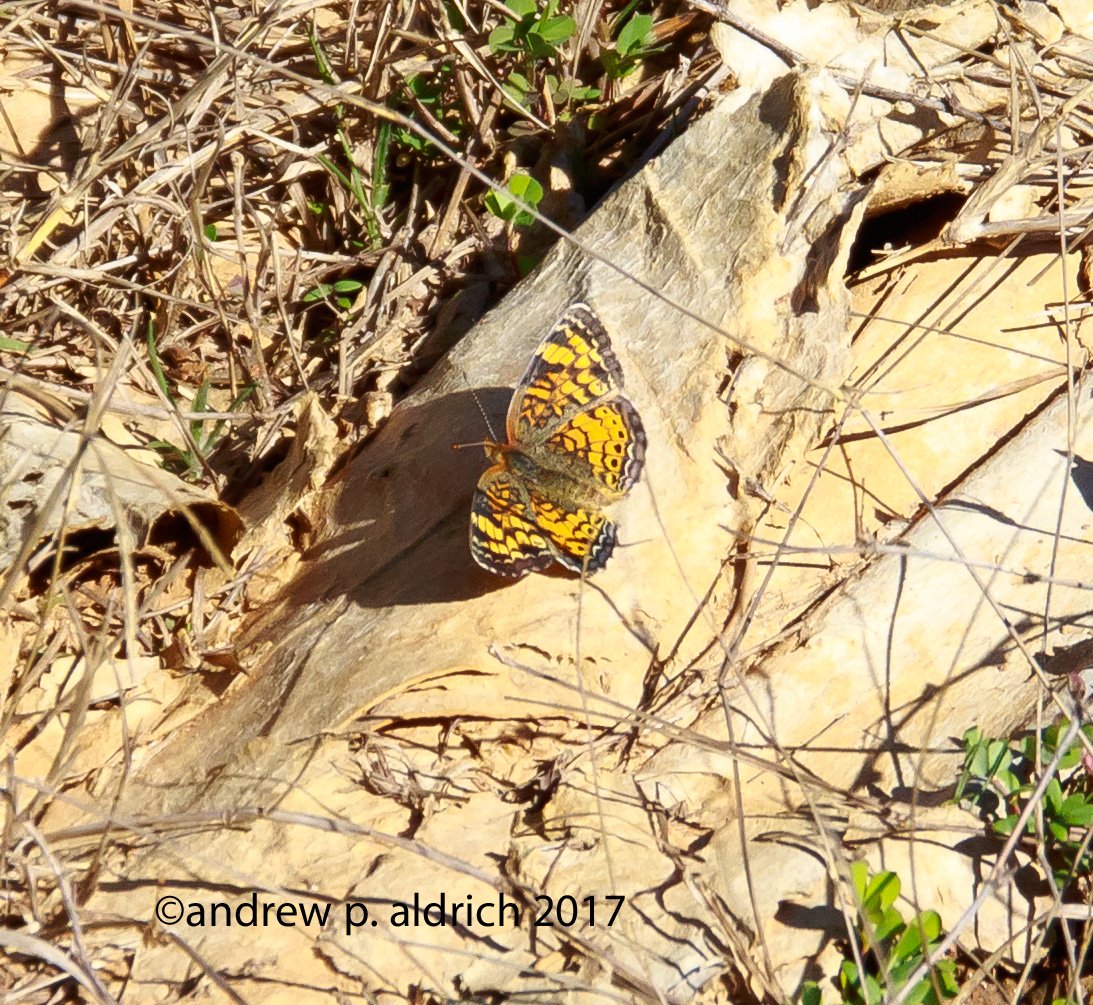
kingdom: Animalia
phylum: Arthropoda
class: Insecta
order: Lepidoptera
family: Nymphalidae
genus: Phyciodes
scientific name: Phyciodes tharos
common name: Pearl Crescent
